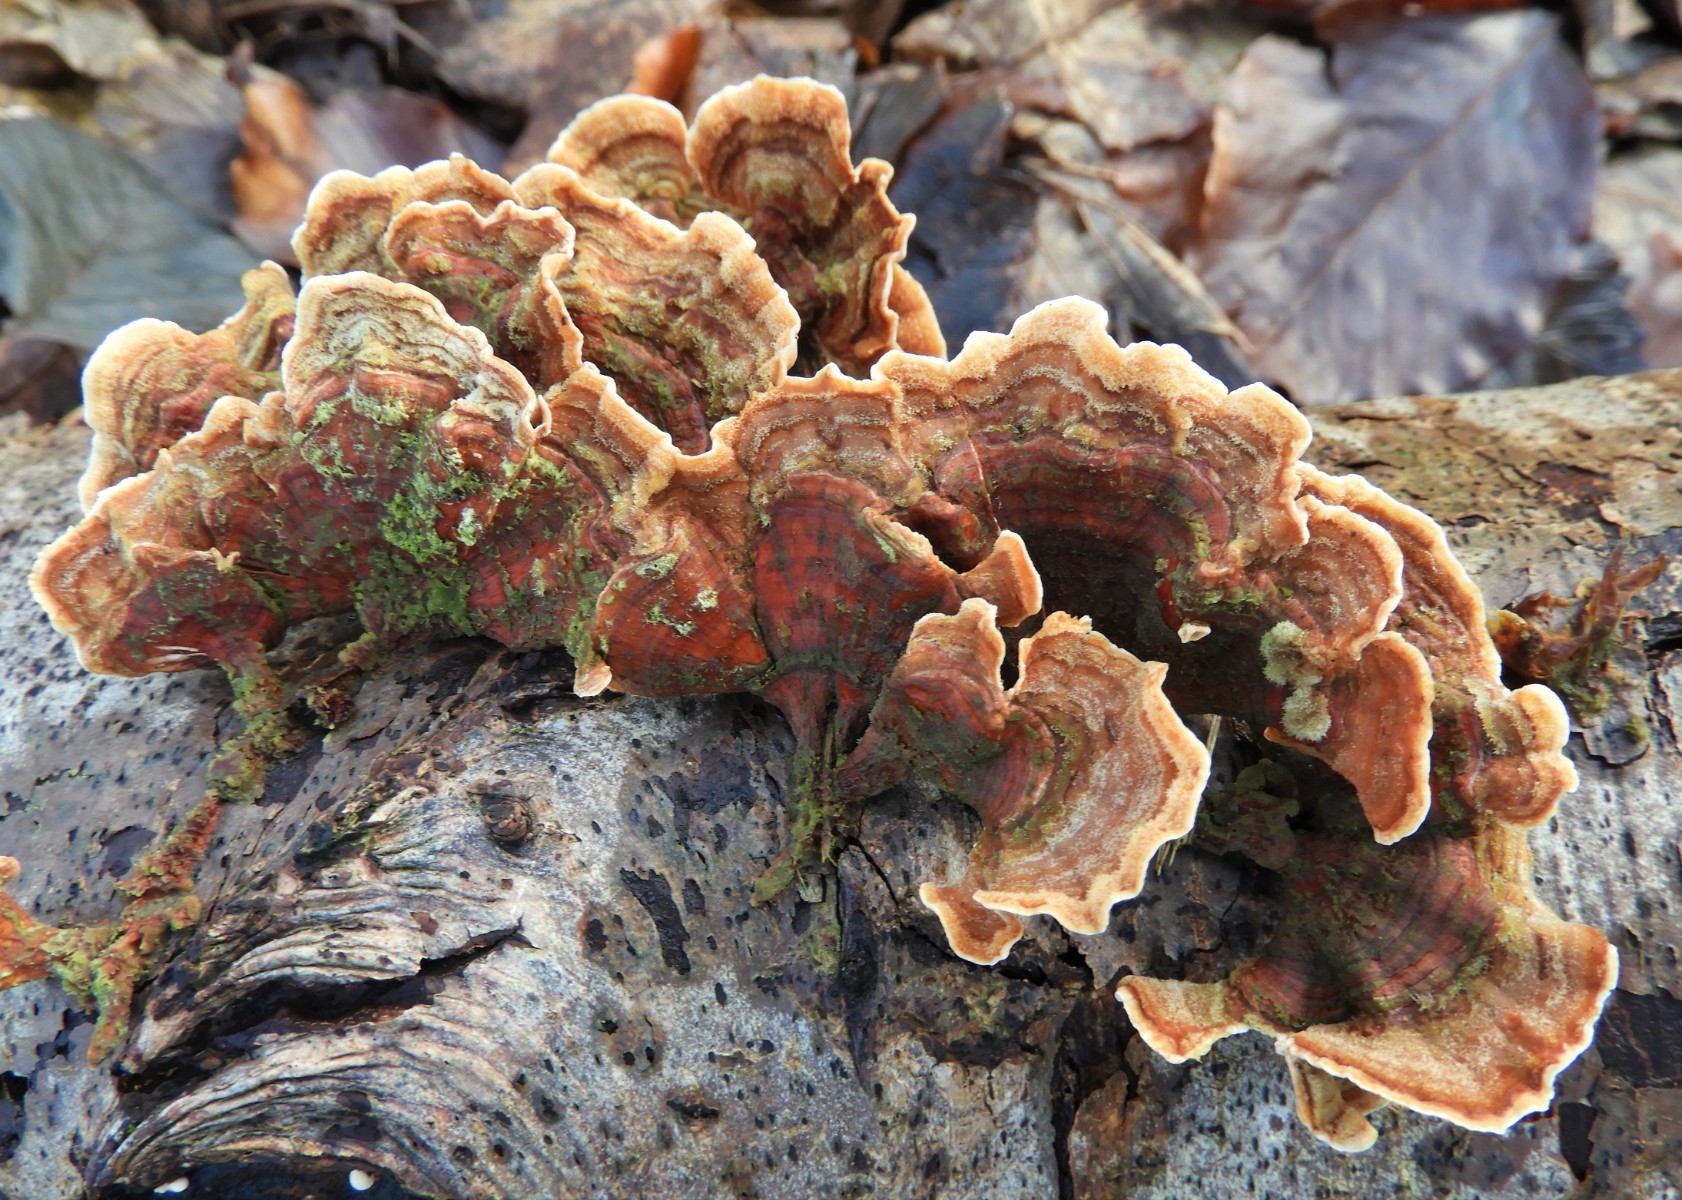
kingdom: Fungi
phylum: Basidiomycota
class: Agaricomycetes
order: Russulales
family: Stereaceae
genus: Stereum
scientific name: Stereum subtomentosum
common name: smuk lædersvamp
